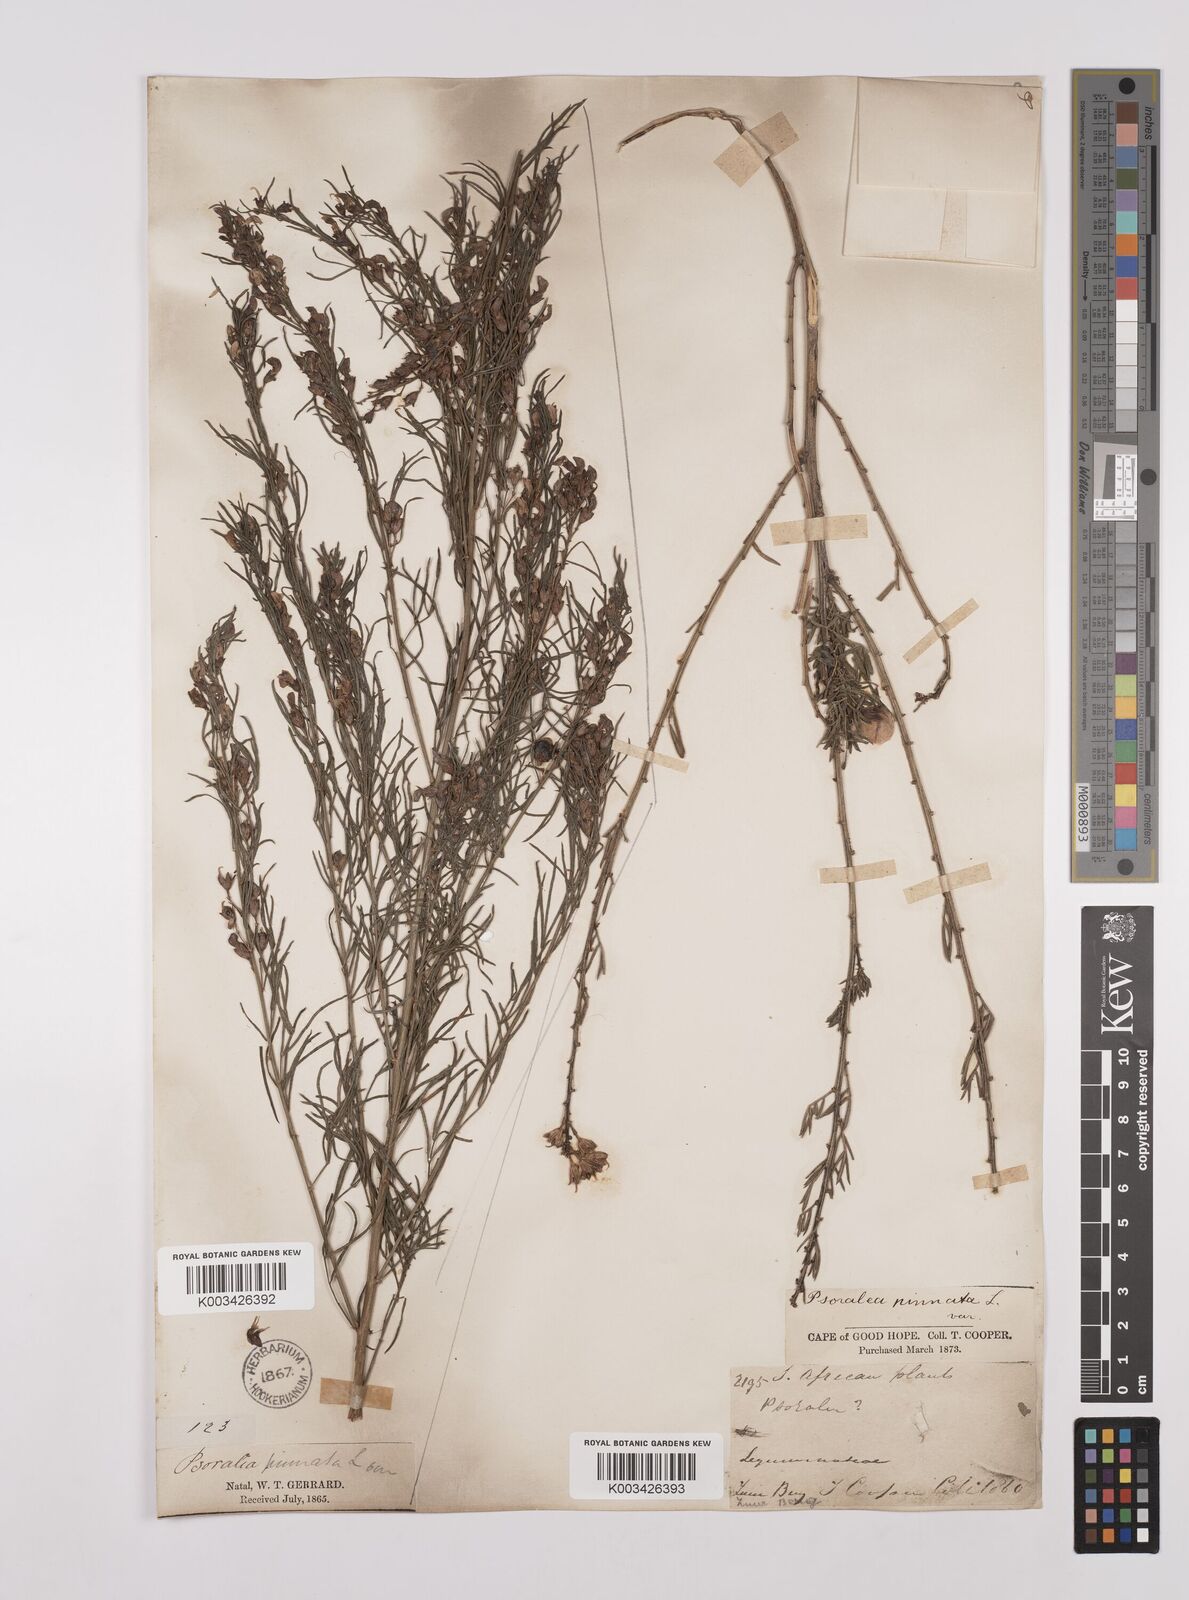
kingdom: Plantae
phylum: Tracheophyta
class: Magnoliopsida
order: Fabales
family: Fabaceae
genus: Psoralea
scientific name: Psoralea rhizotoma
